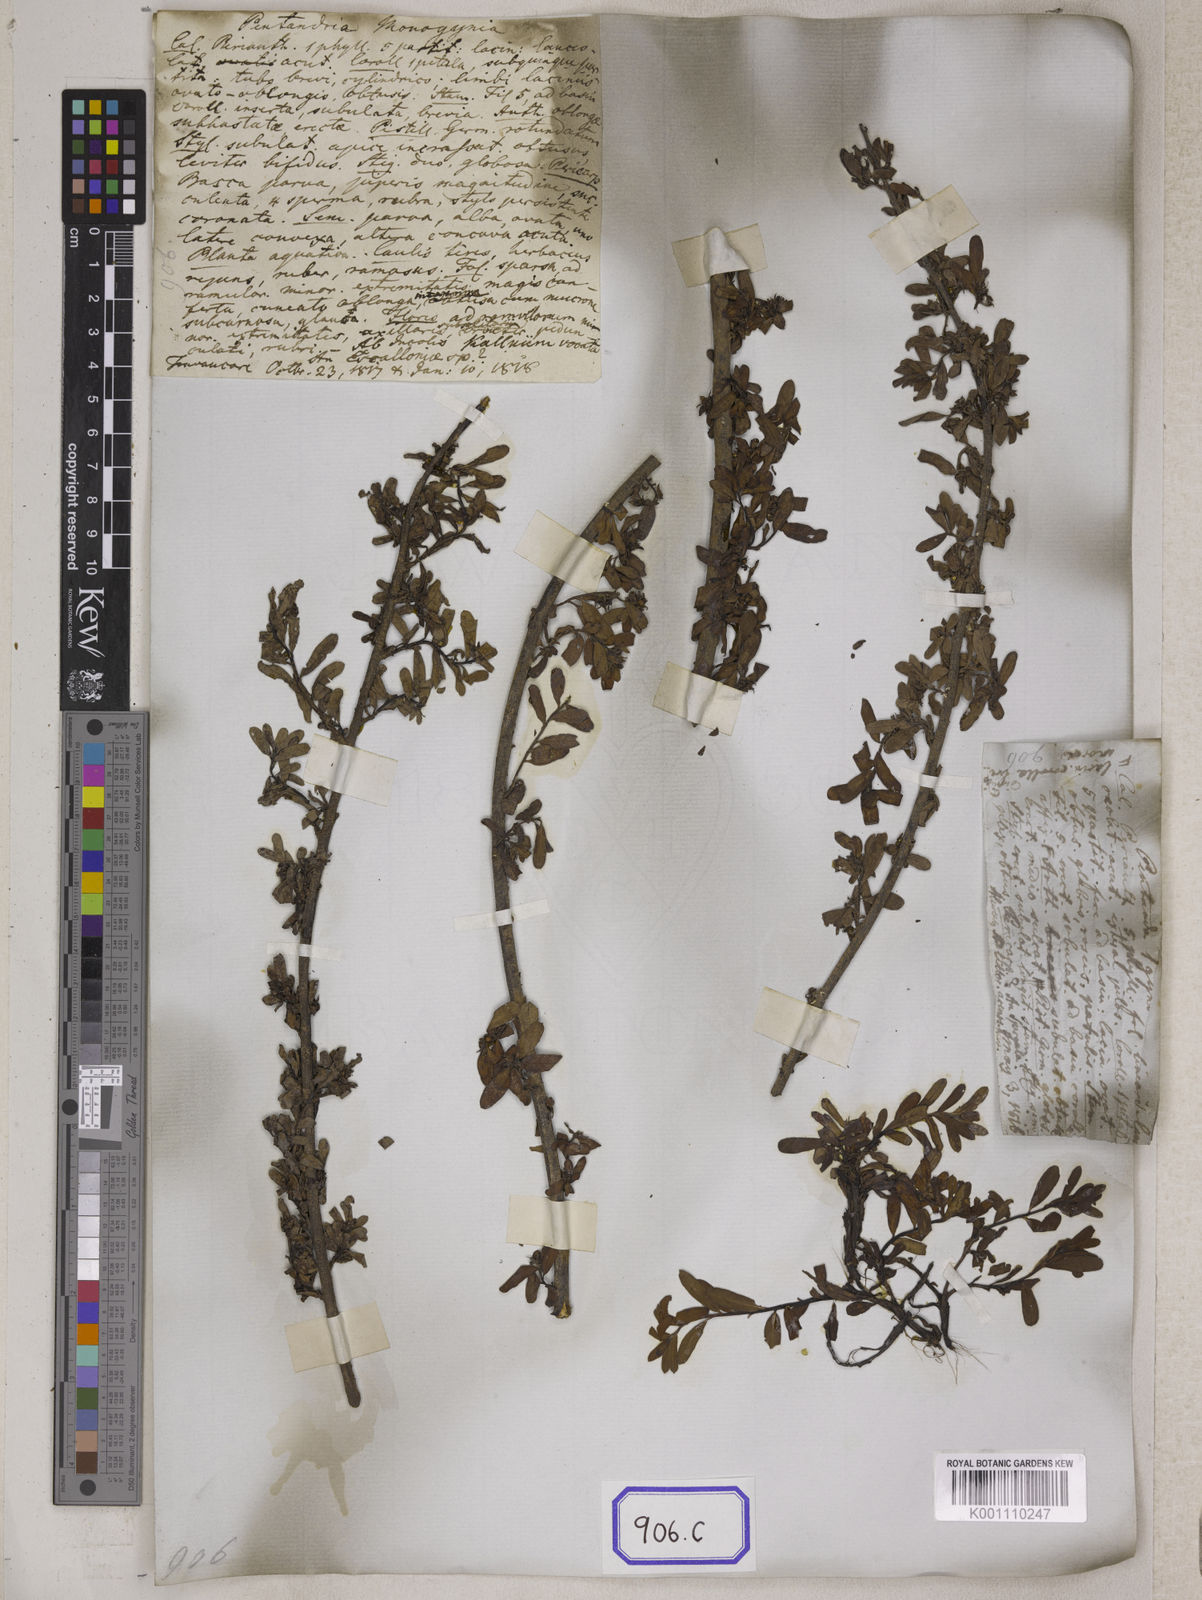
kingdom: Plantae
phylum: Tracheophyta
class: Magnoliopsida
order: Boraginales
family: Ehretiaceae
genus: Ehretia
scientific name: Ehretia
